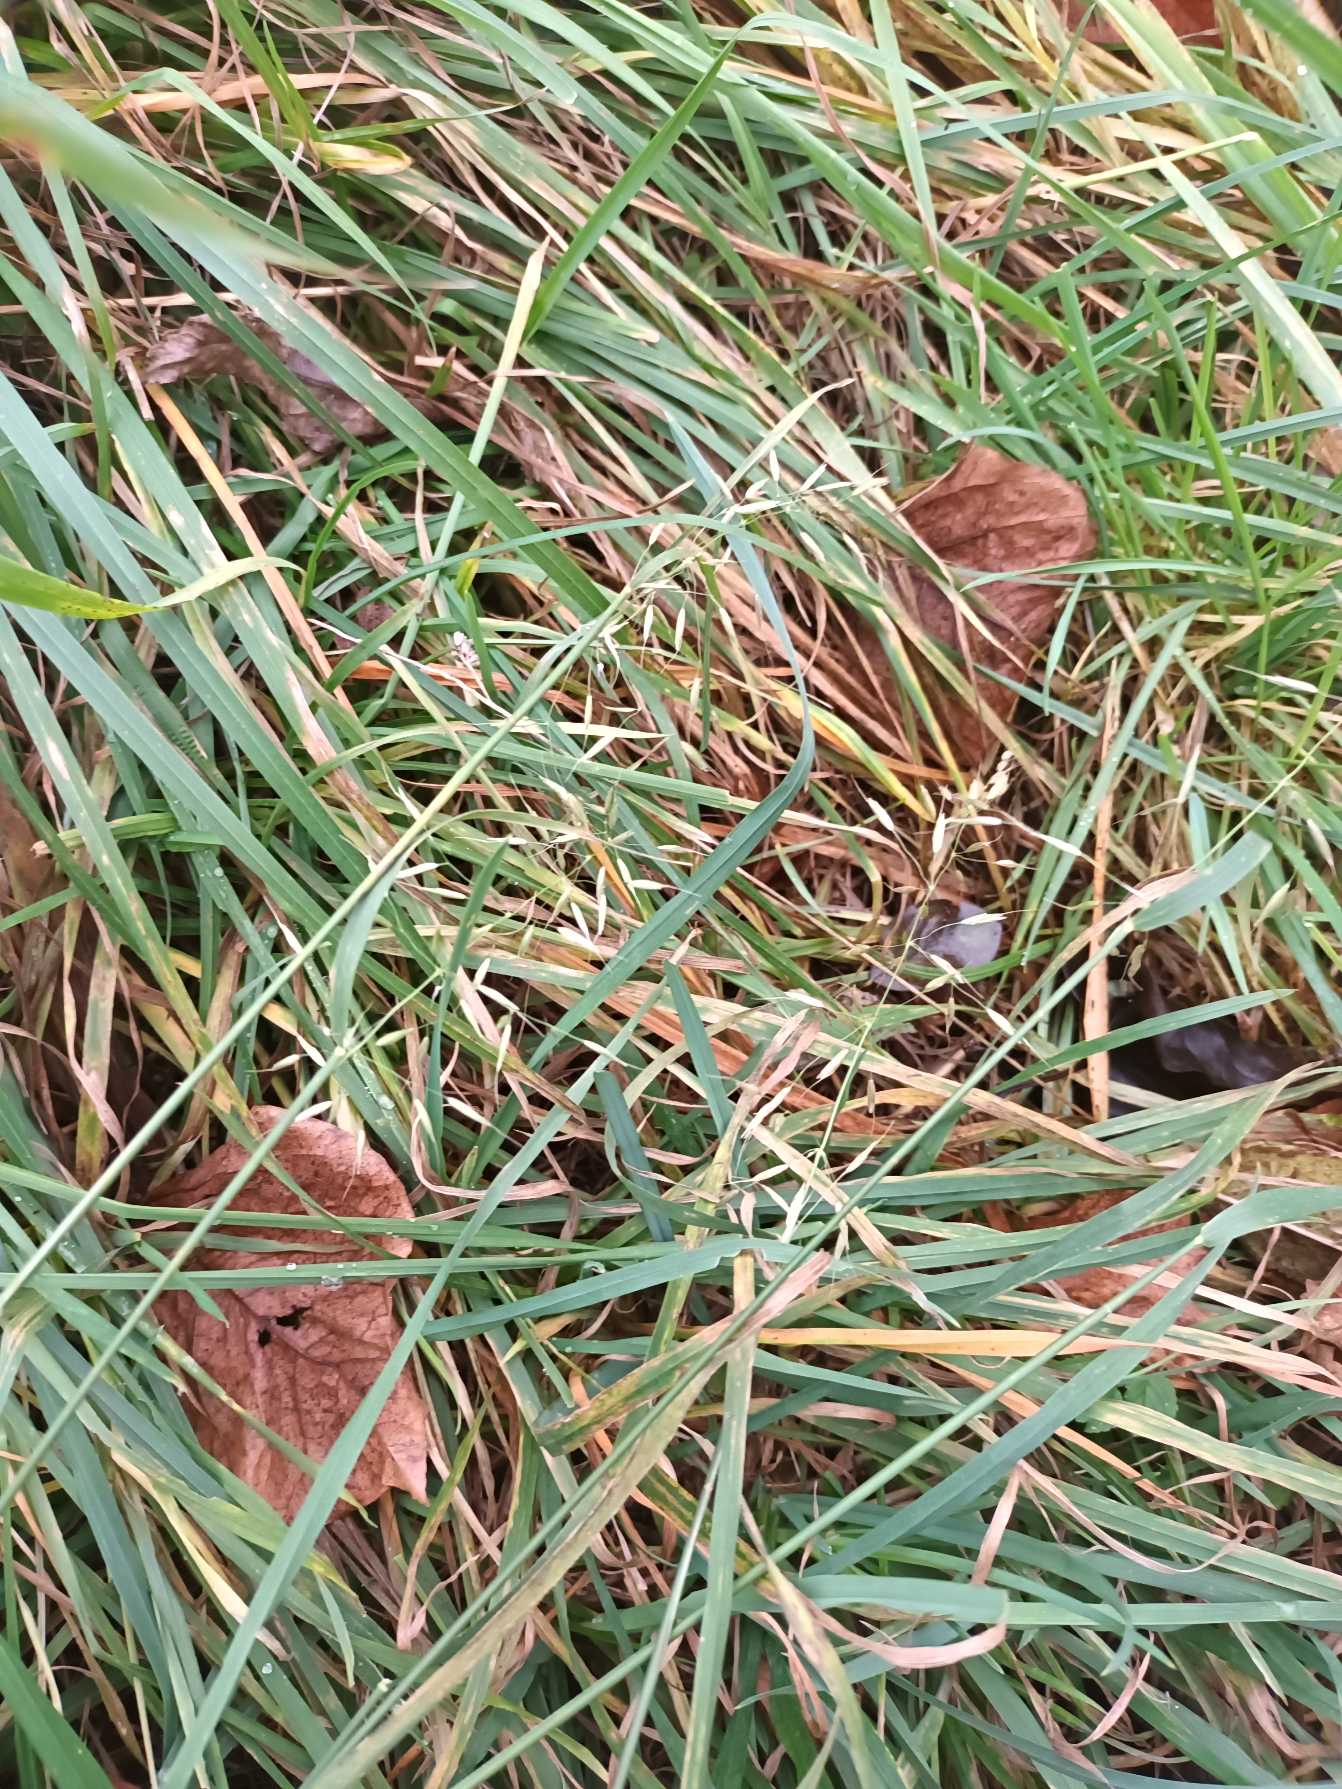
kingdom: Plantae
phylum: Tracheophyta
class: Liliopsida
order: Poales
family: Poaceae
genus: Arrhenatherum
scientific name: Arrhenatherum elatius
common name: Draphavre
